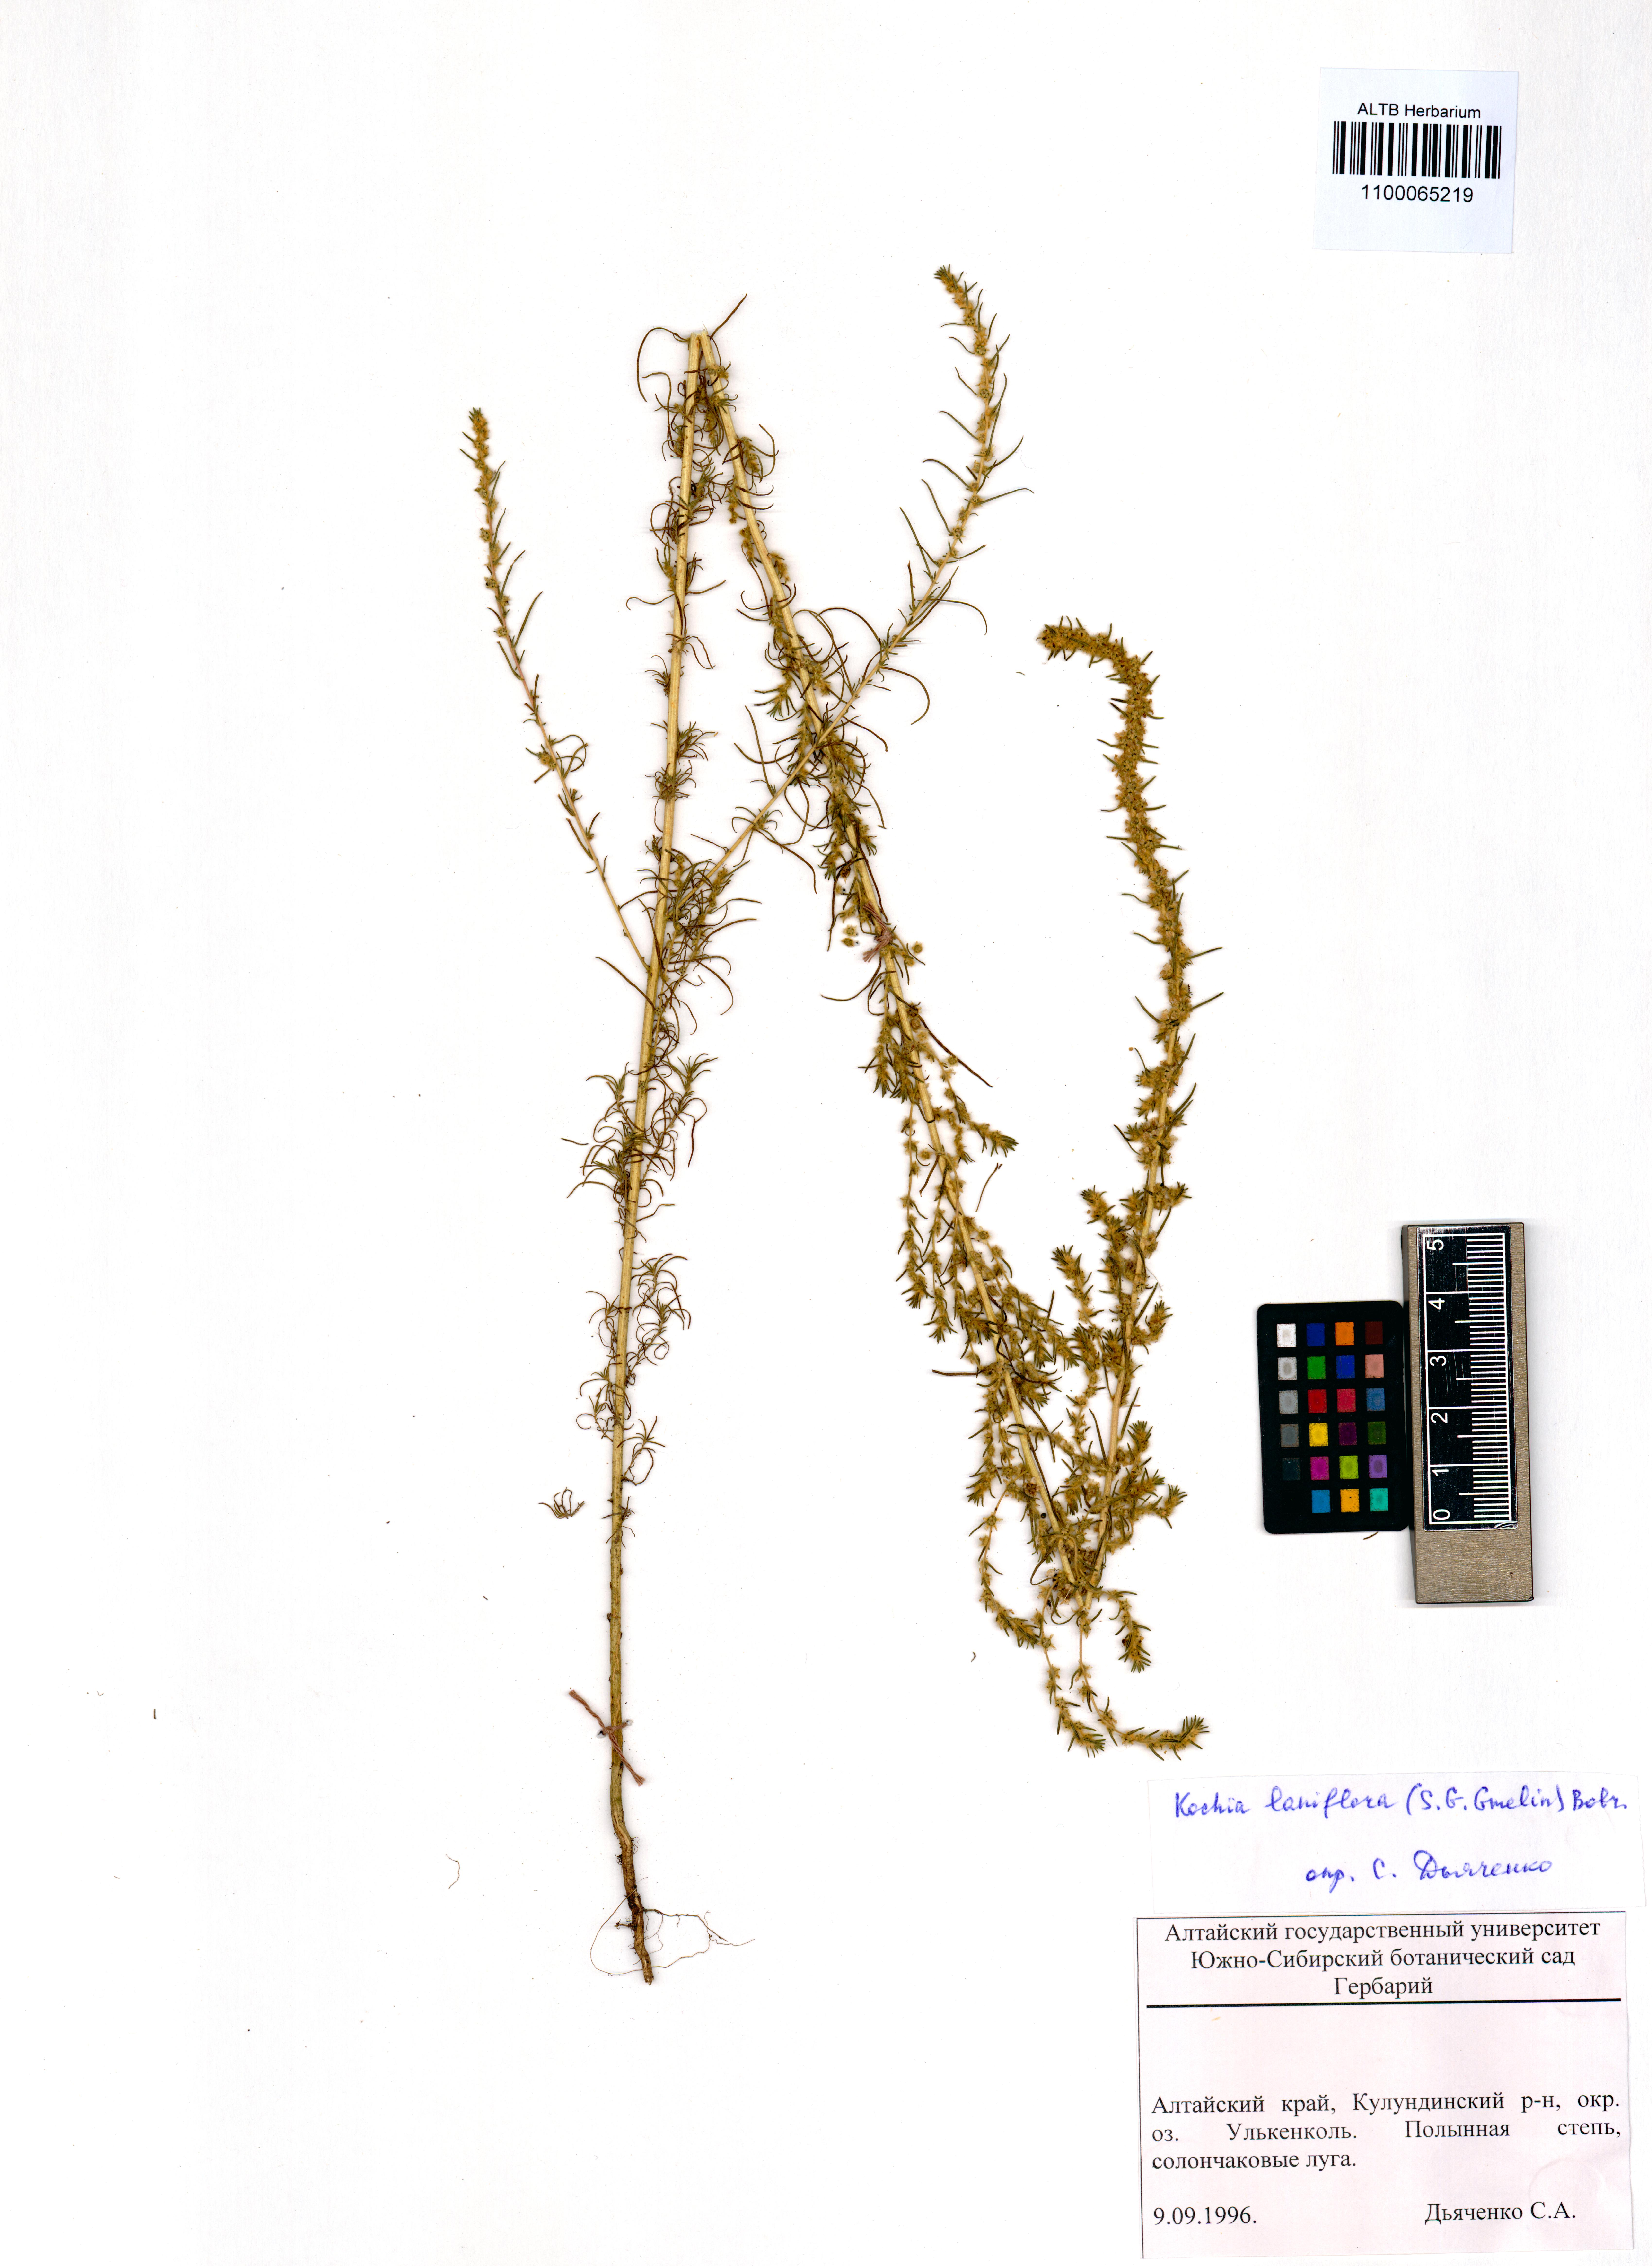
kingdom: Plantae
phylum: Tracheophyta
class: Magnoliopsida
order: Caryophyllales
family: Amaranthaceae
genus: Bassia
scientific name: Bassia laniflora
